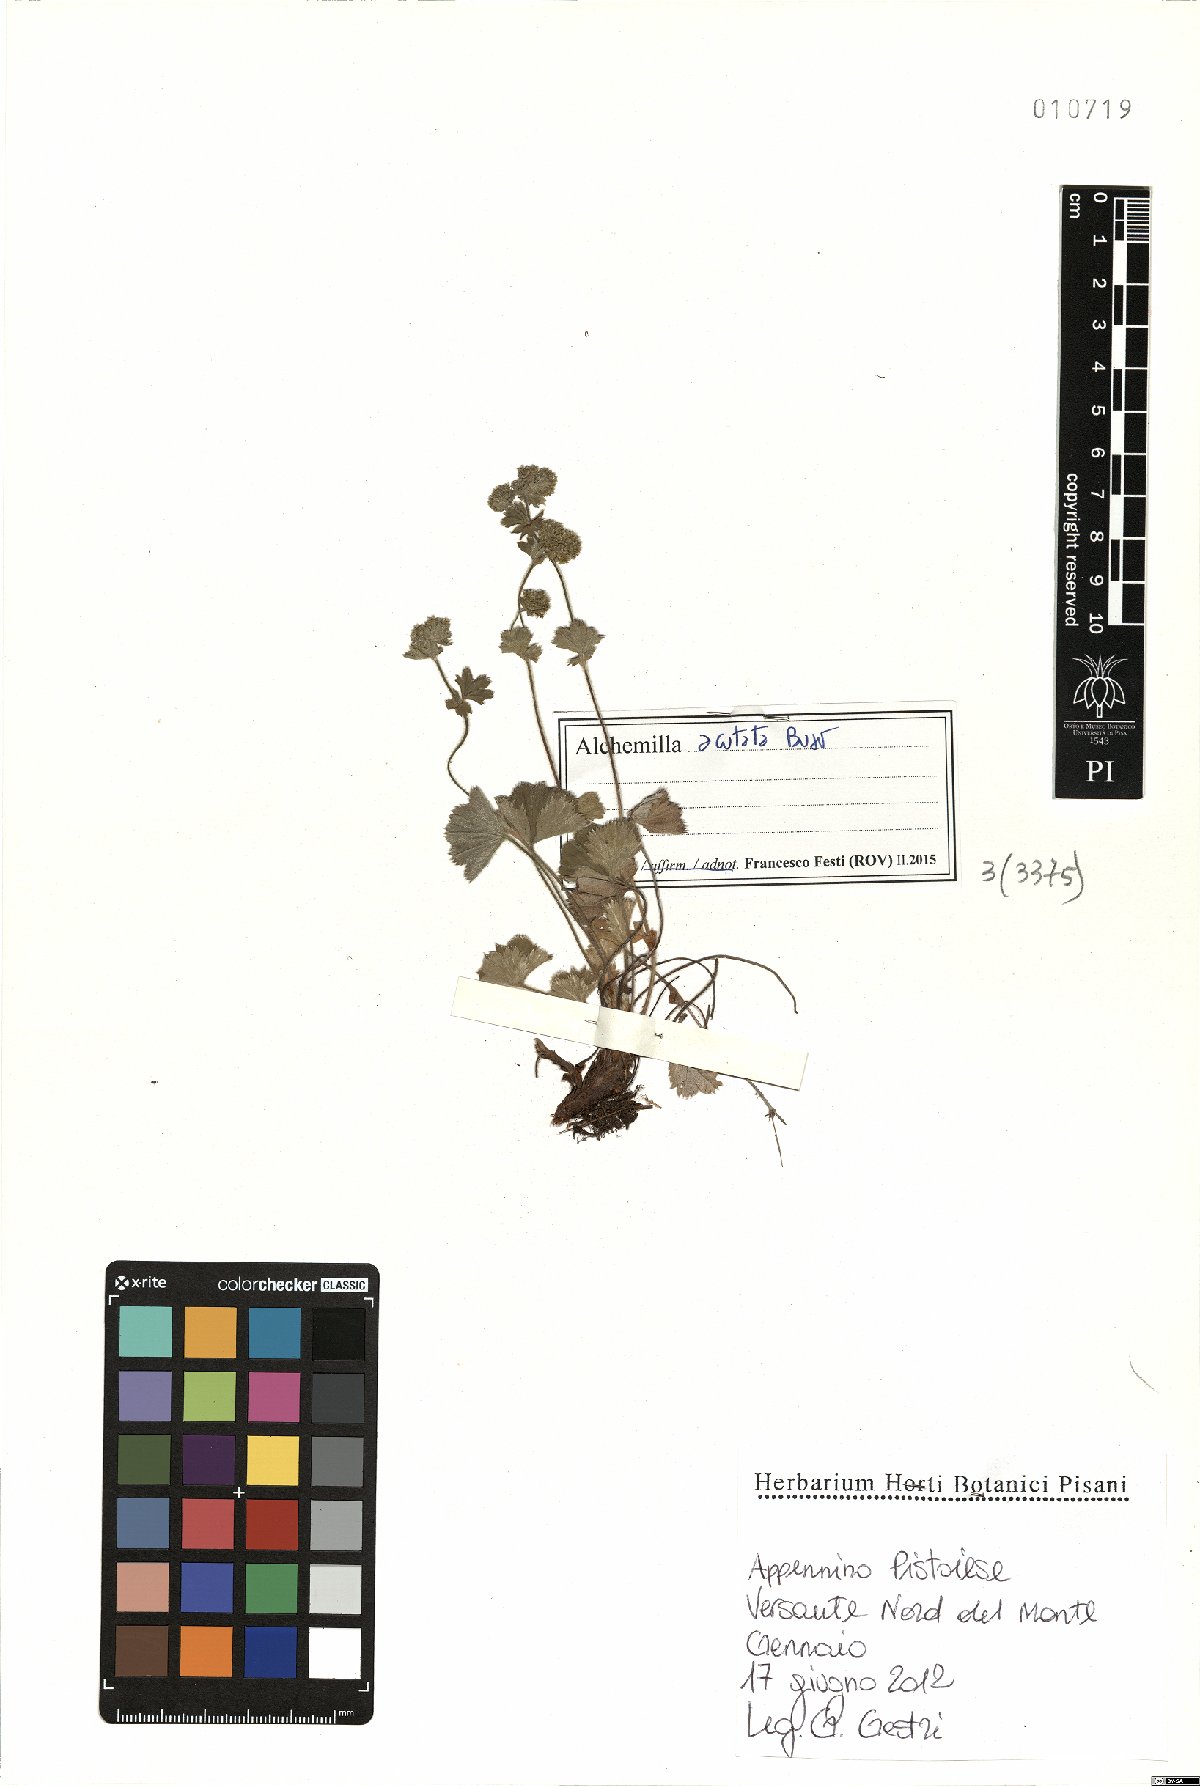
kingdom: Plantae
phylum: Tracheophyta
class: Magnoliopsida
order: Rosales
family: Rosaceae
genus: Alchemilla
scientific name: Alchemilla acutata
